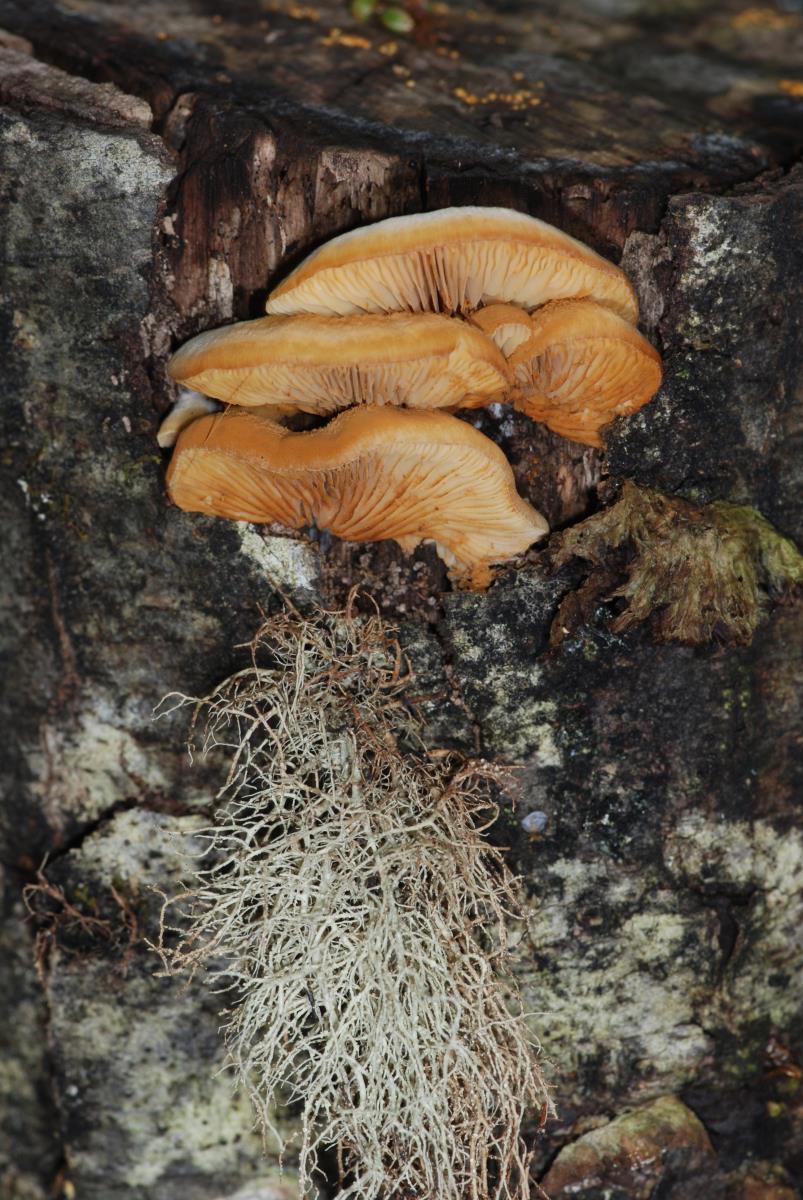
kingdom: Fungi
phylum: Basidiomycota
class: Agaricomycetes
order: Agaricales
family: Crepidotaceae
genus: Crepidotus
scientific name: Crepidotus praecipuus
